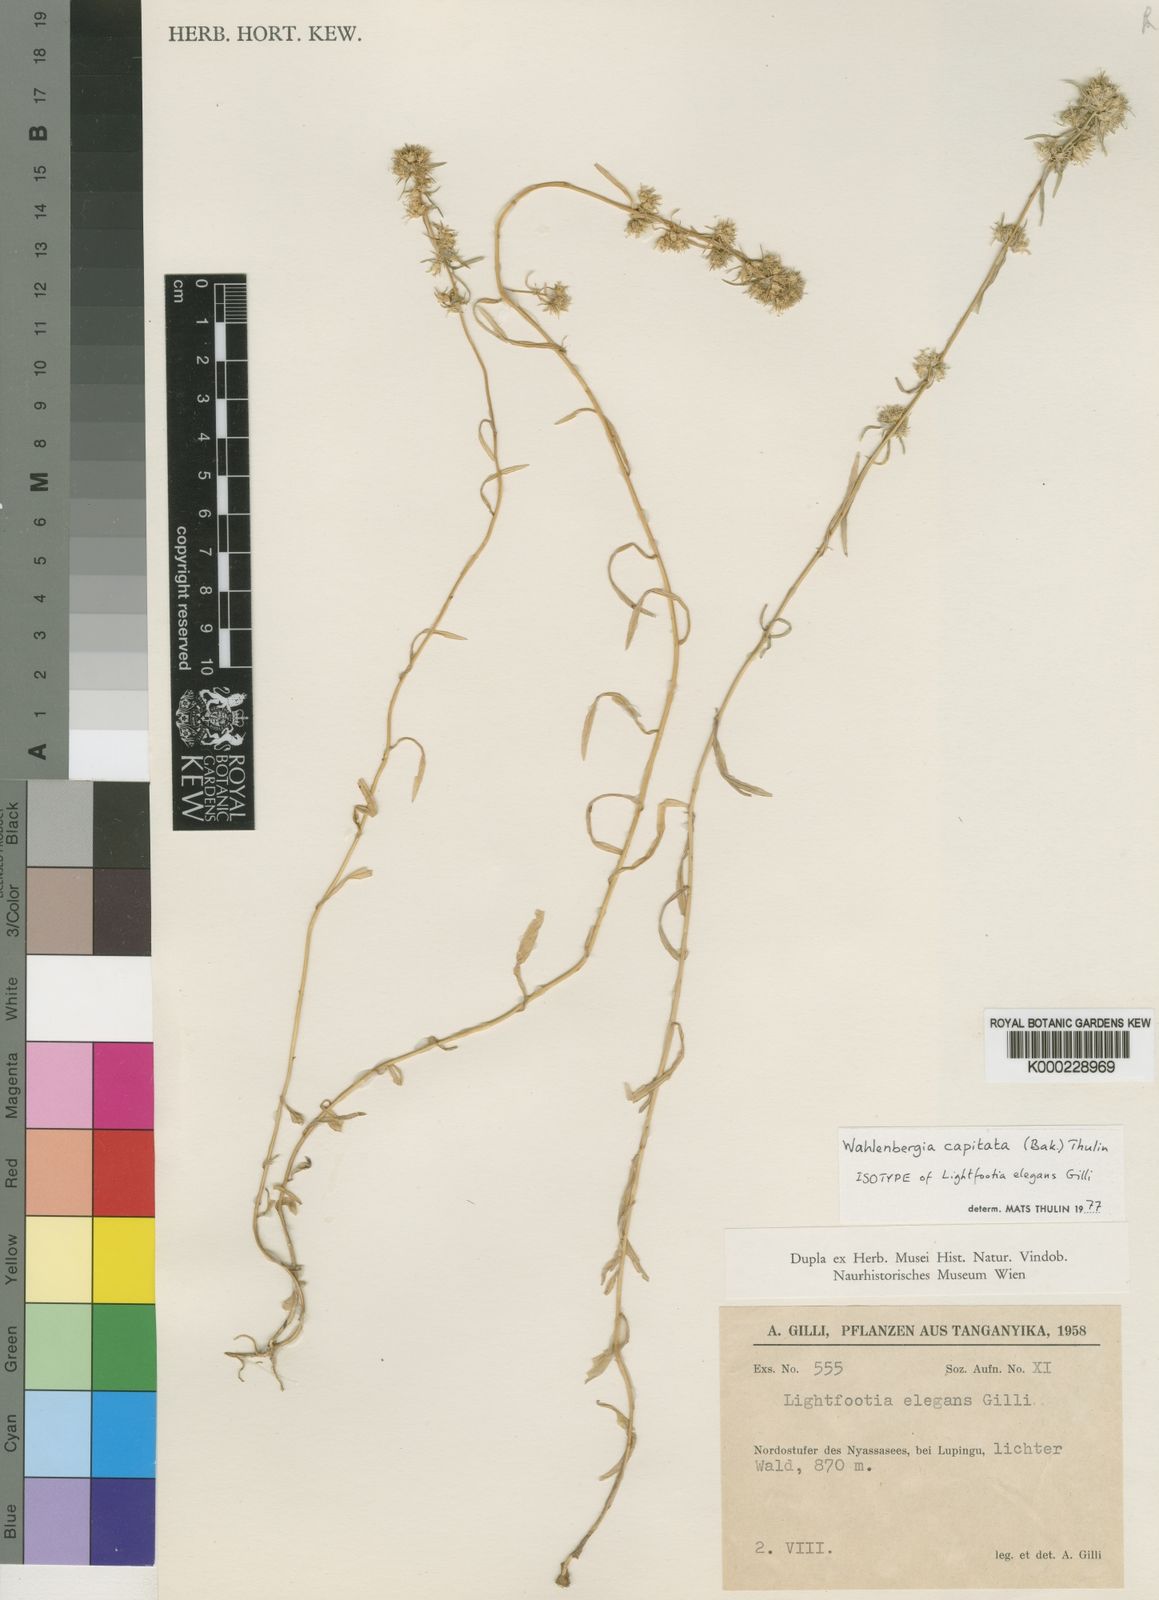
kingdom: Plantae
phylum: Tracheophyta
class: Magnoliopsida
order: Asterales
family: Campanulaceae
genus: Wahlenbergia
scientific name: Wahlenbergia capitata
